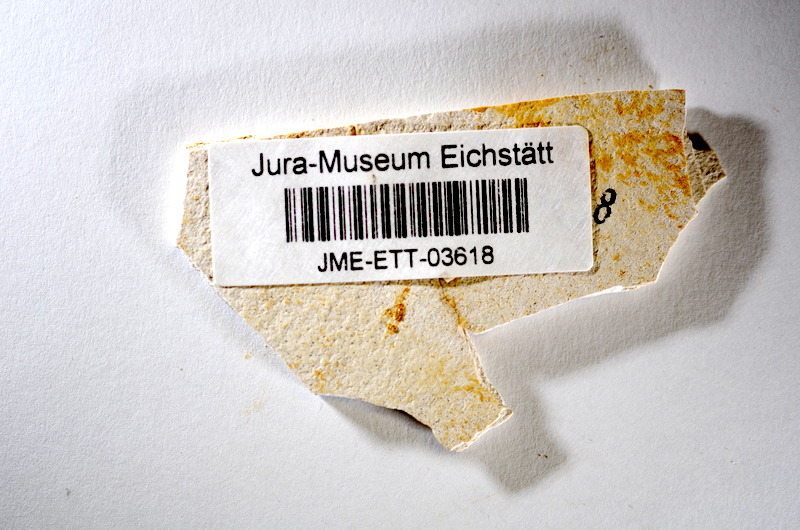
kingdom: Animalia
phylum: Chordata
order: Salmoniformes
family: Orthogonikleithridae
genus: Orthogonikleithrus
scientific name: Orthogonikleithrus hoelli
